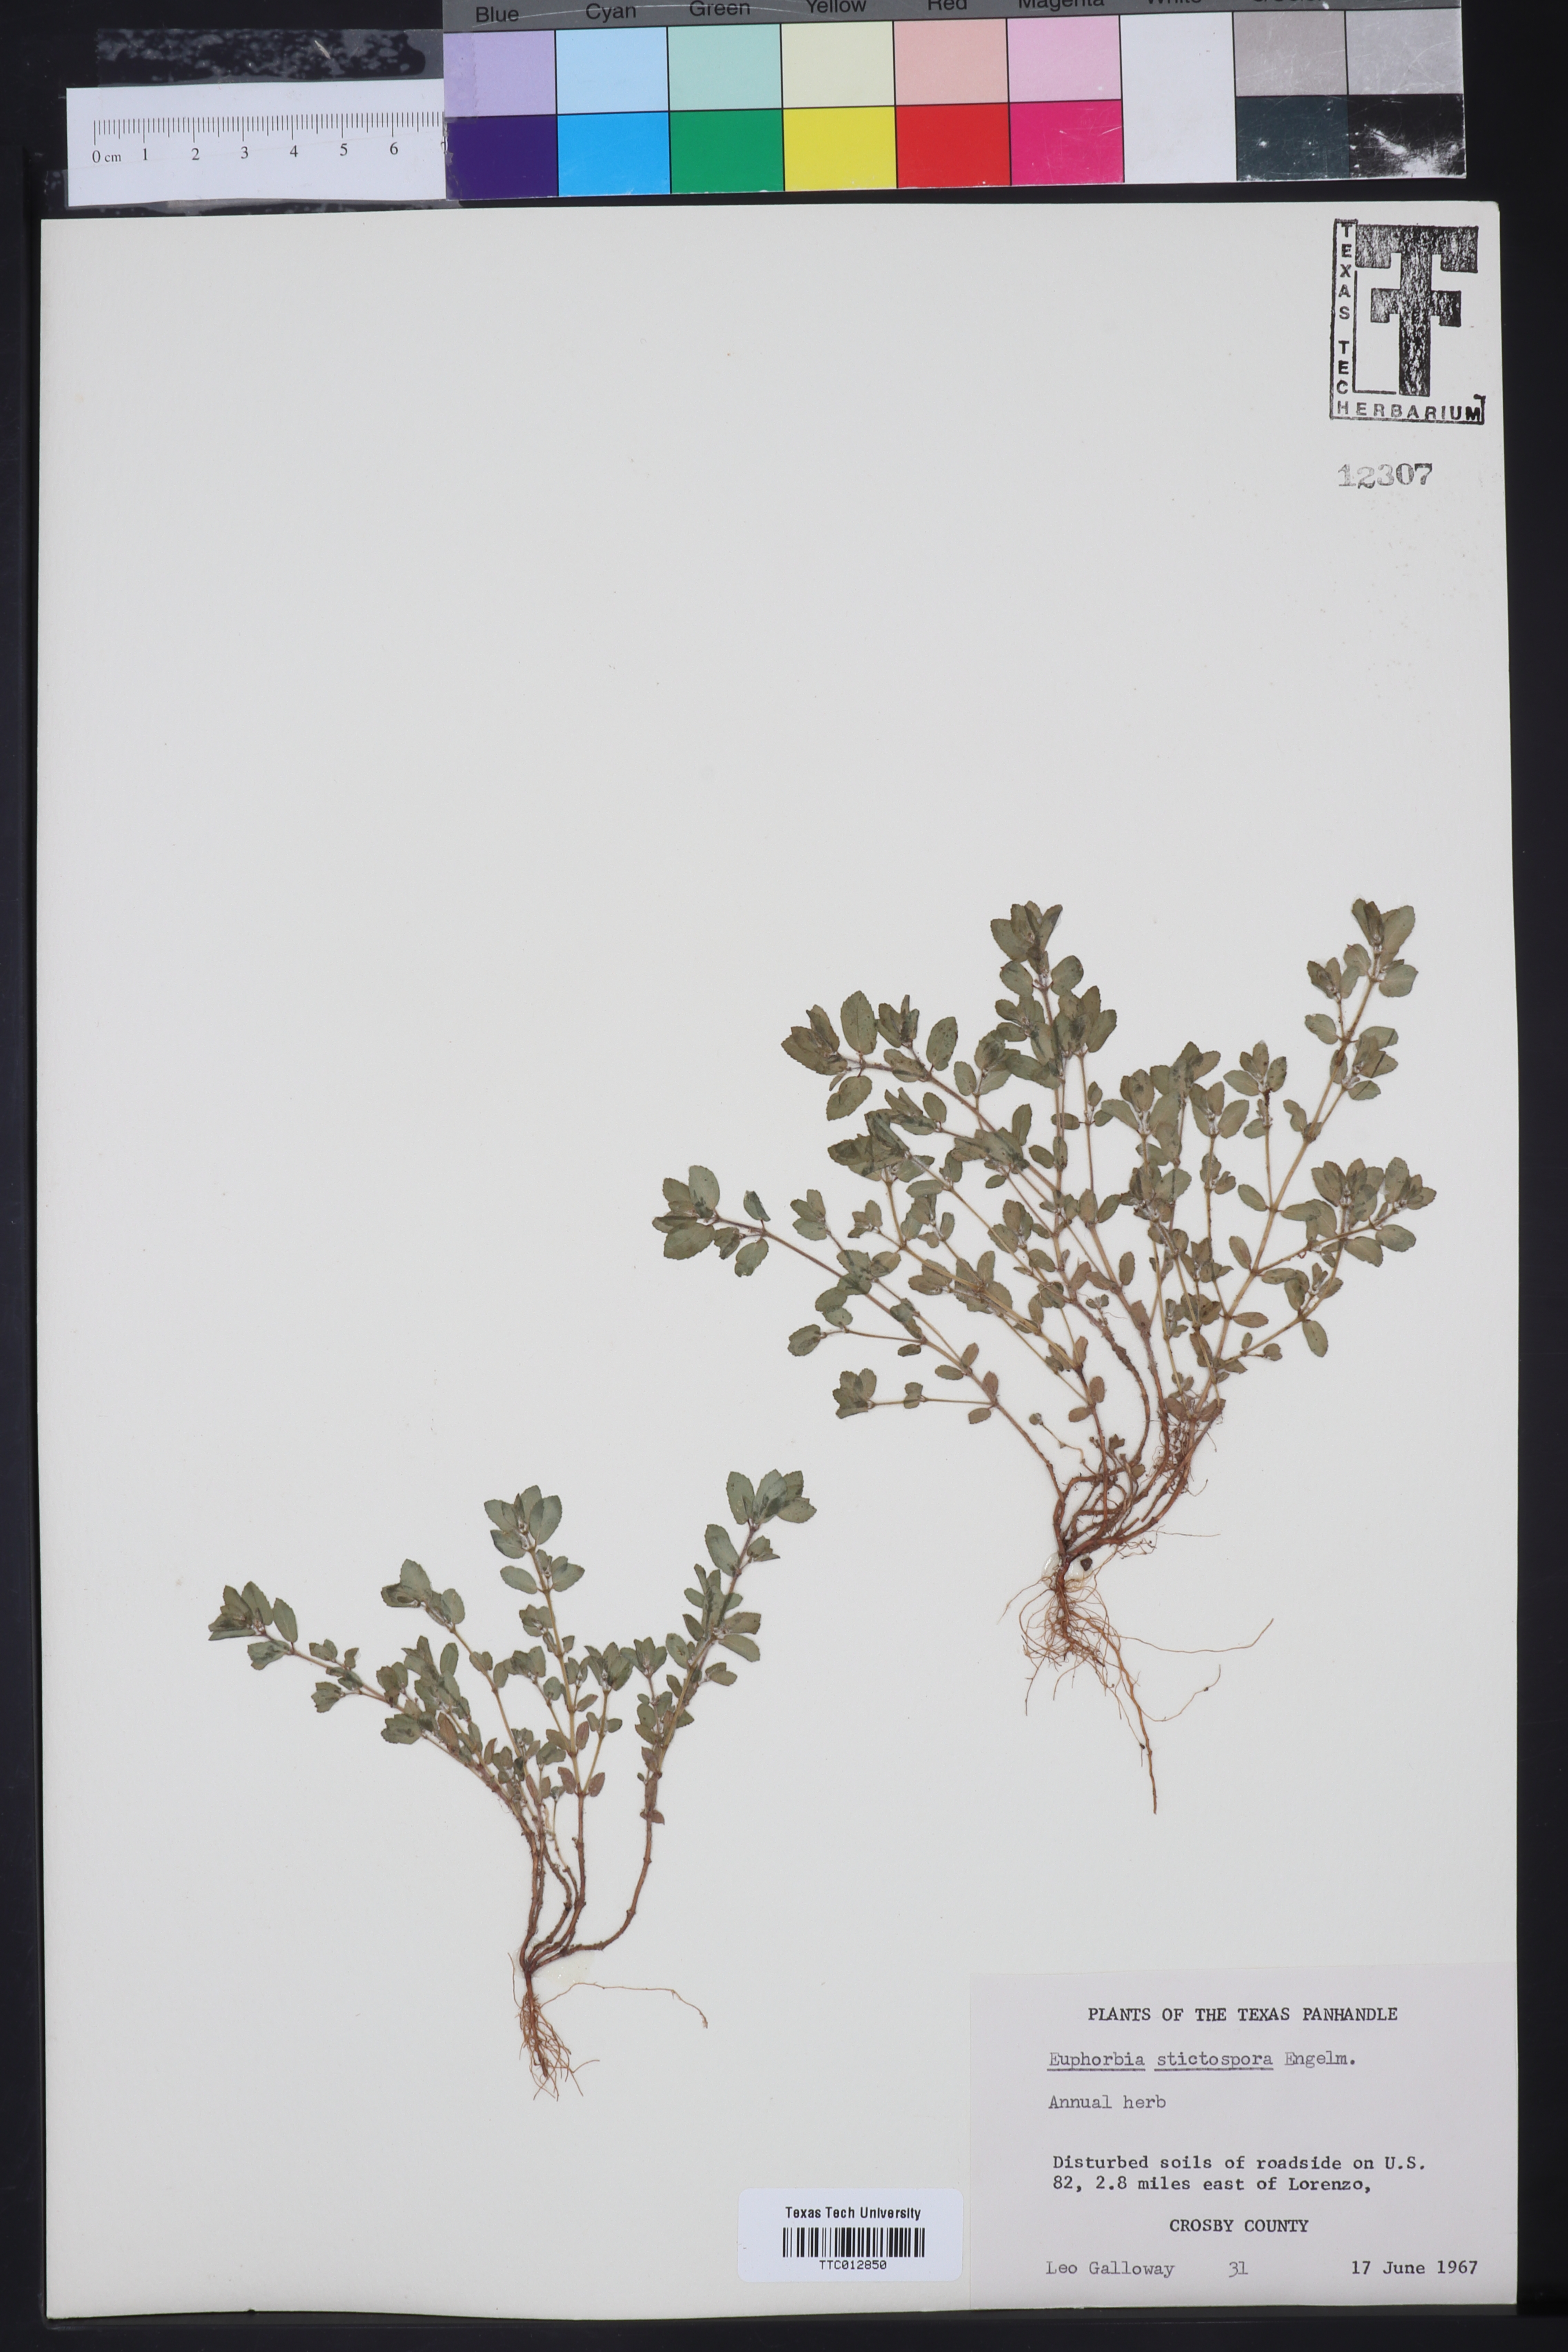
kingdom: Plantae
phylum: Tracheophyta
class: Magnoliopsida
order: Malpighiales
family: Euphorbiaceae
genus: Euphorbia
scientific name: Euphorbia stictospora
